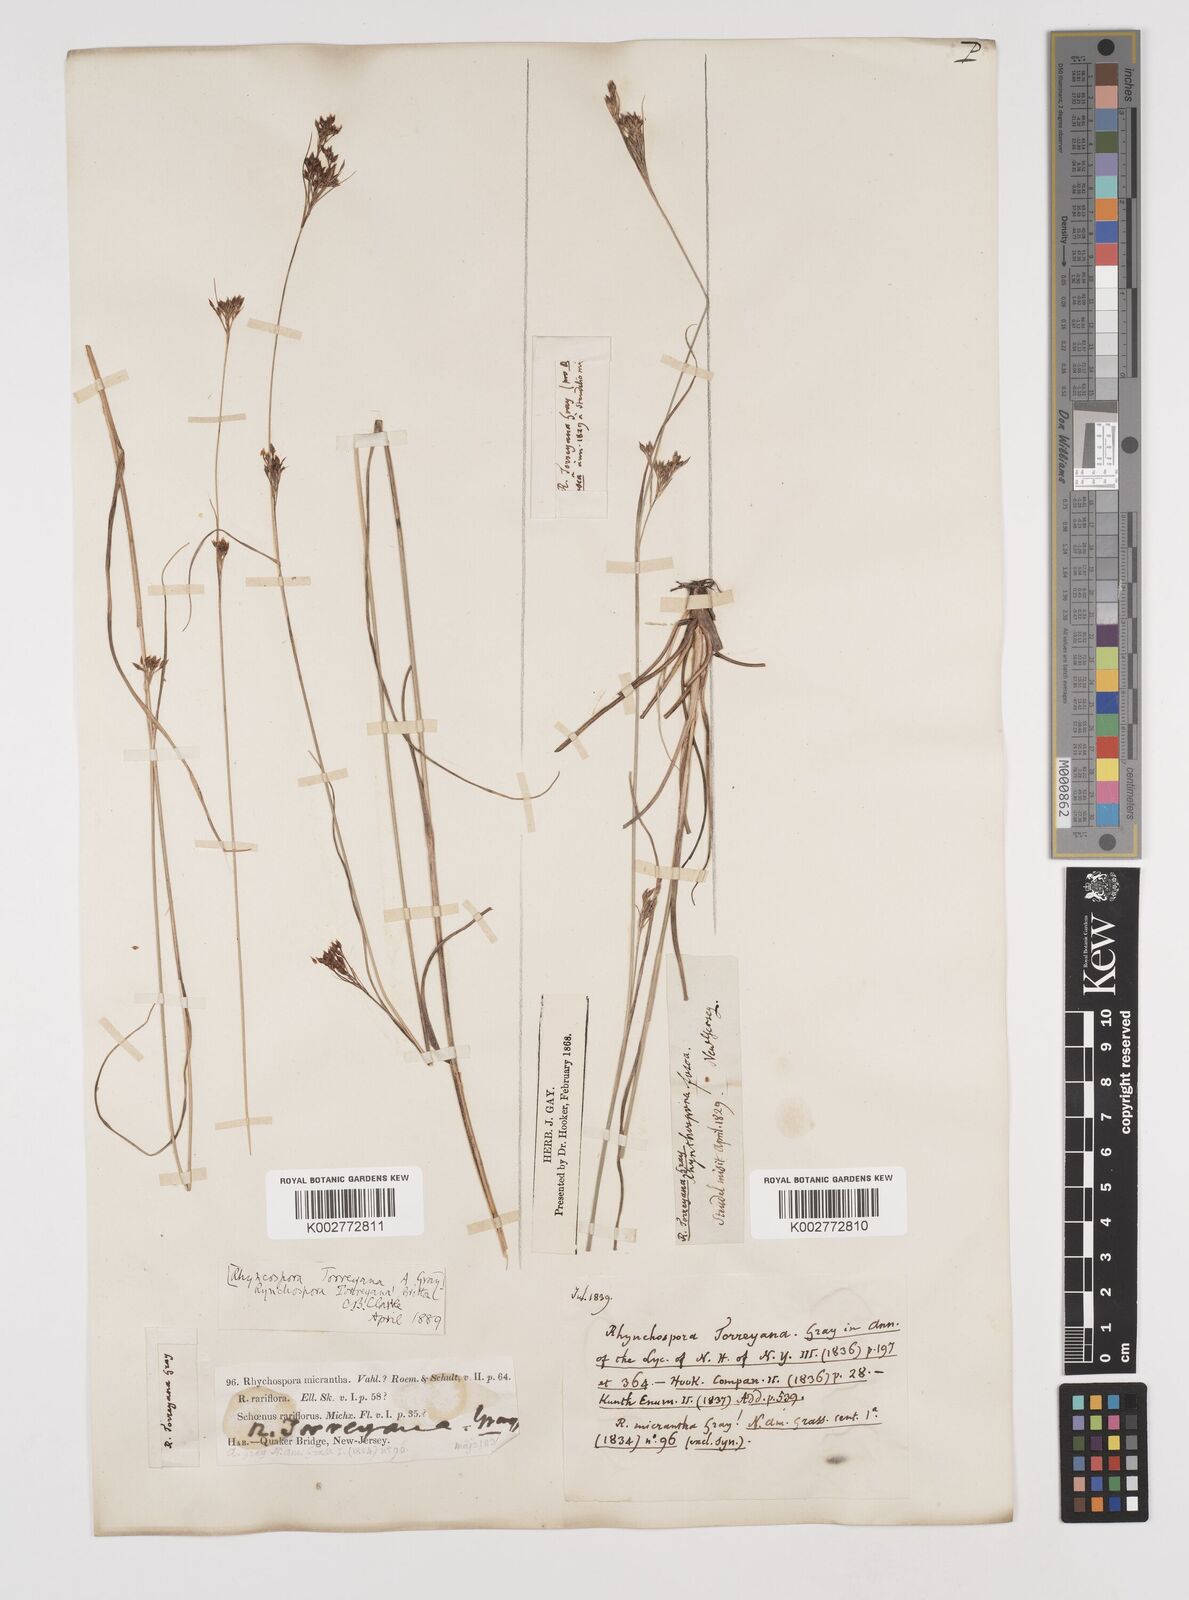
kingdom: Plantae
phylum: Tracheophyta
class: Liliopsida
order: Poales
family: Cyperaceae
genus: Rhynchospora
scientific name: Rhynchospora torreyana
